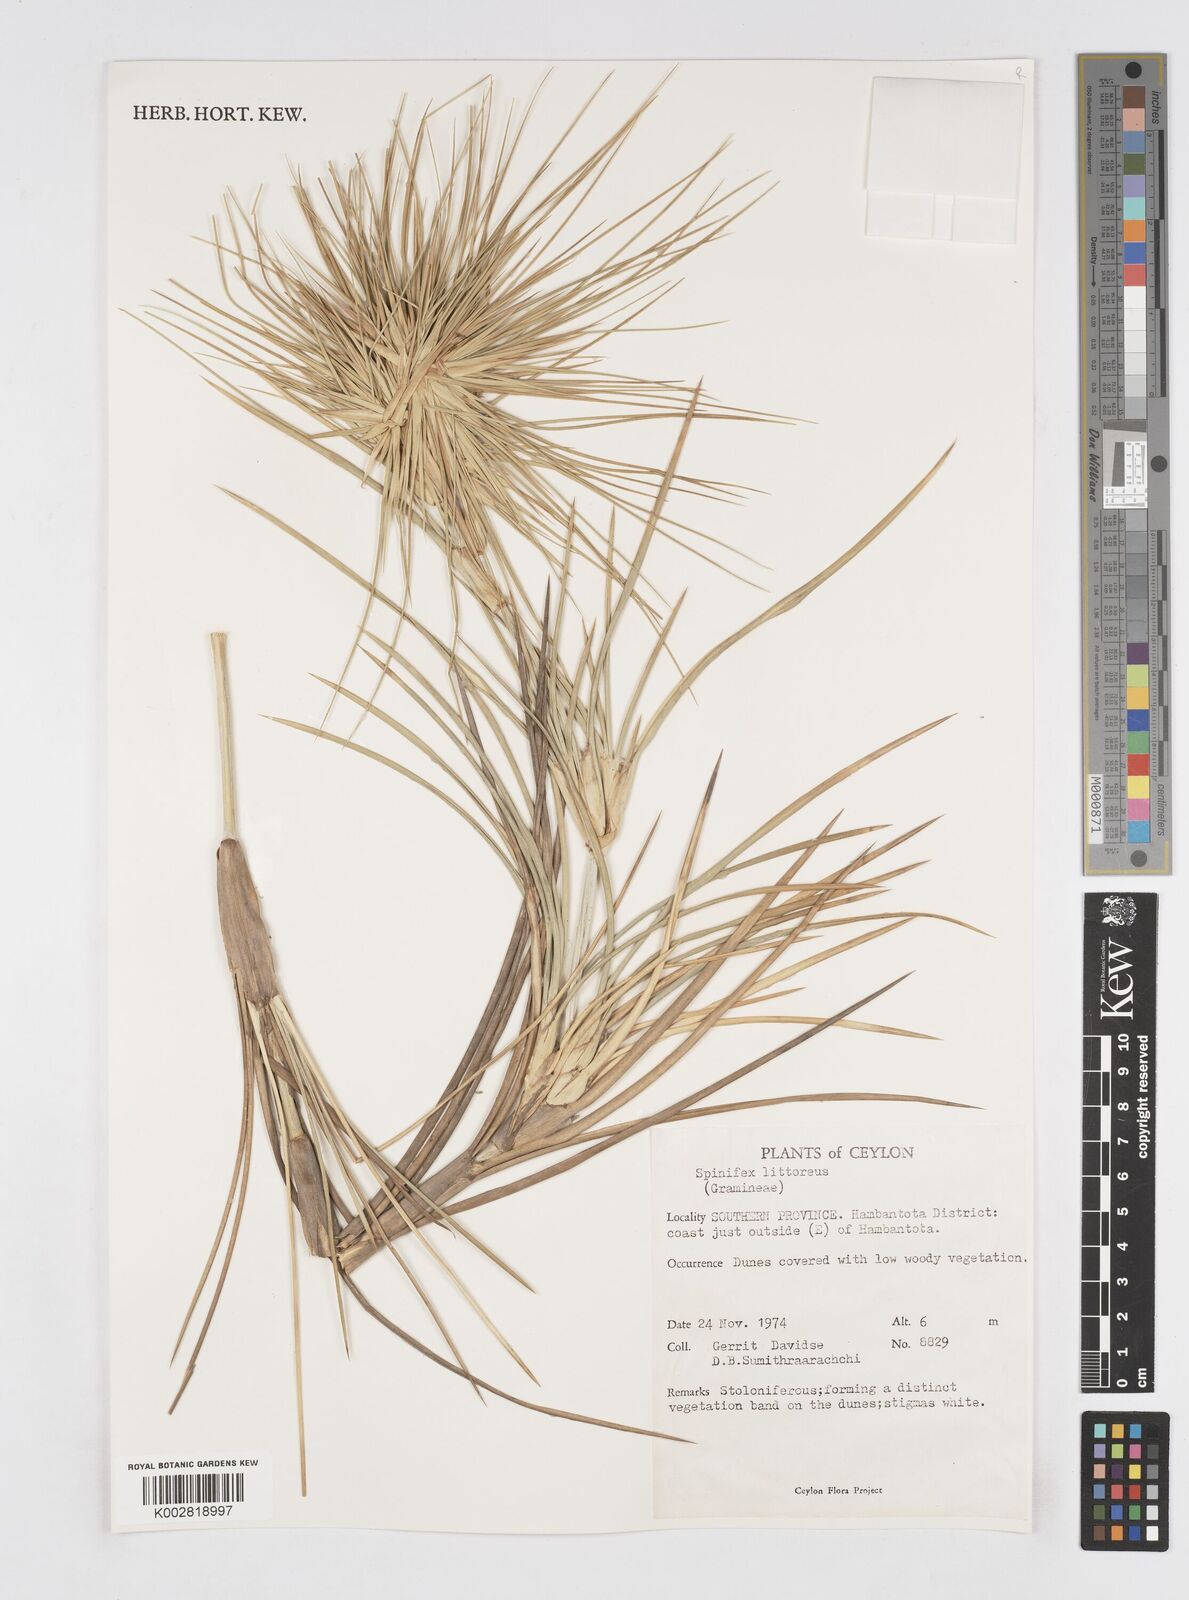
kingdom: Plantae
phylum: Tracheophyta
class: Liliopsida
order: Poales
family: Poaceae
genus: Spinifex
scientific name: Spinifex littoreus
